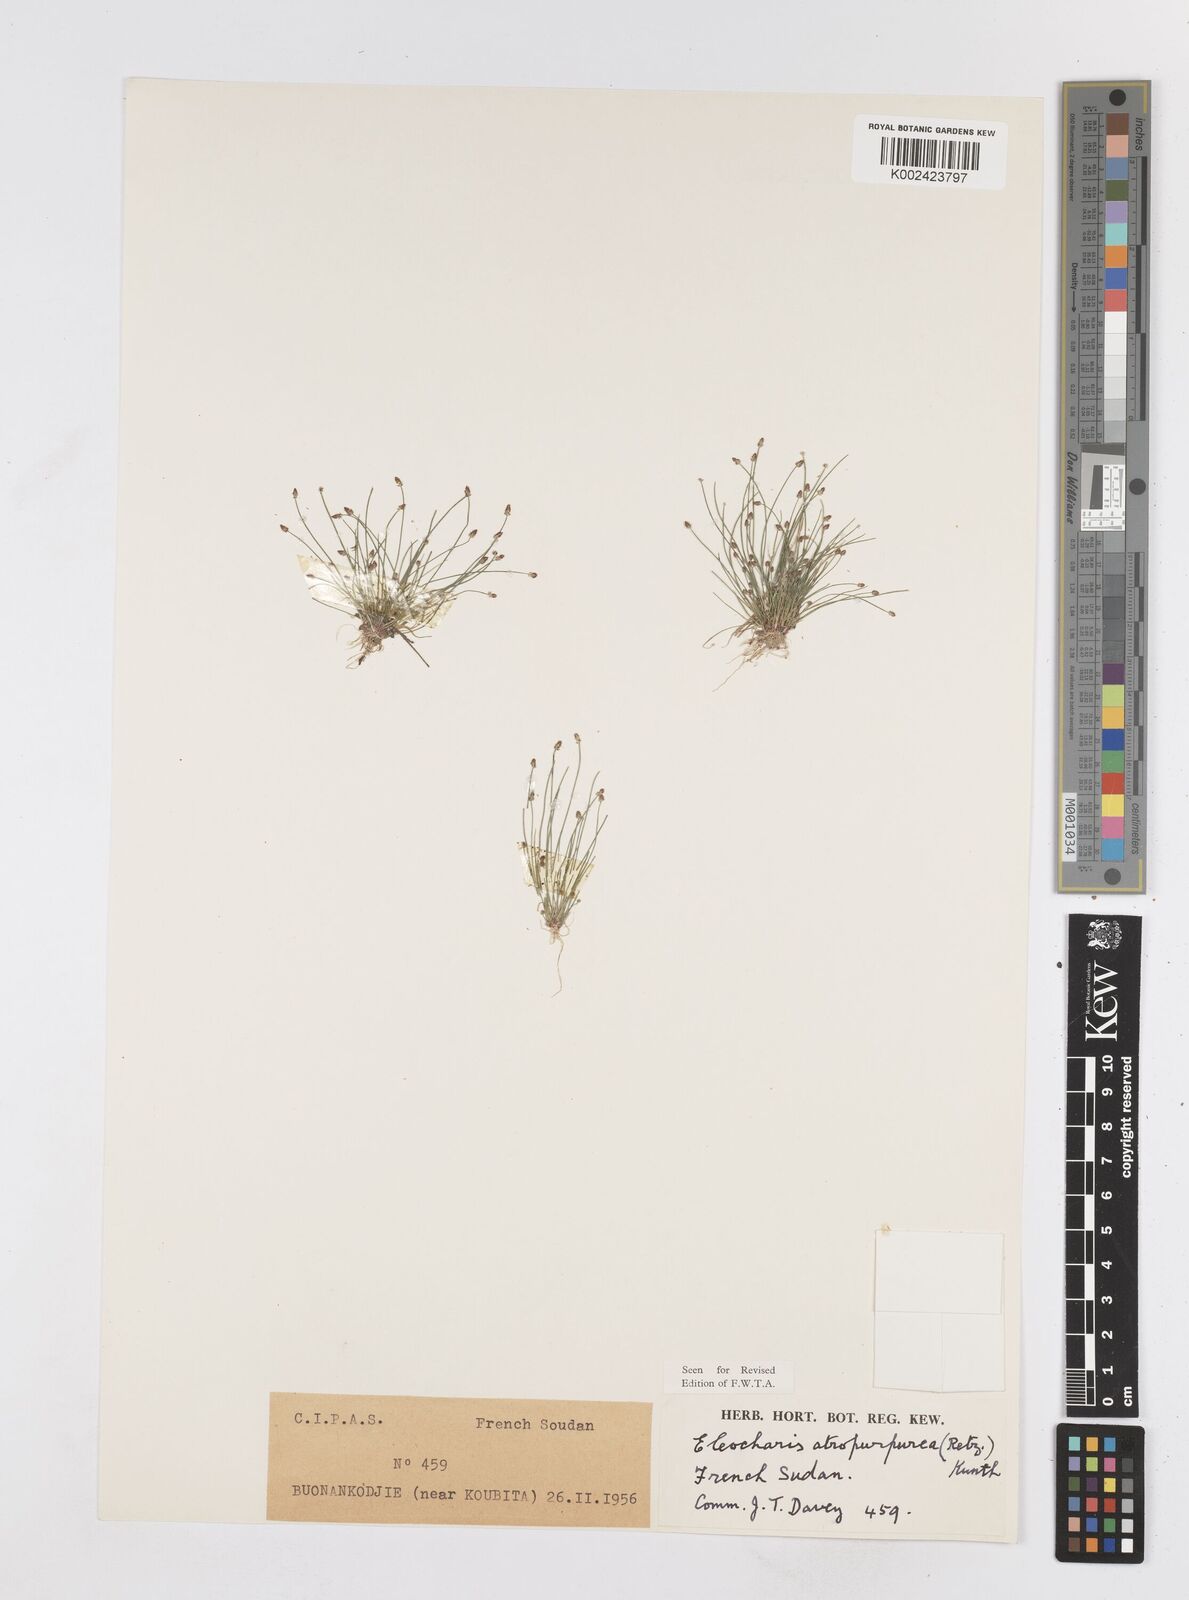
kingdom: Plantae
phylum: Tracheophyta
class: Liliopsida
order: Poales
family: Cyperaceae
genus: Eleocharis
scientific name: Eleocharis atropurpurea
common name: Purple spikerush
